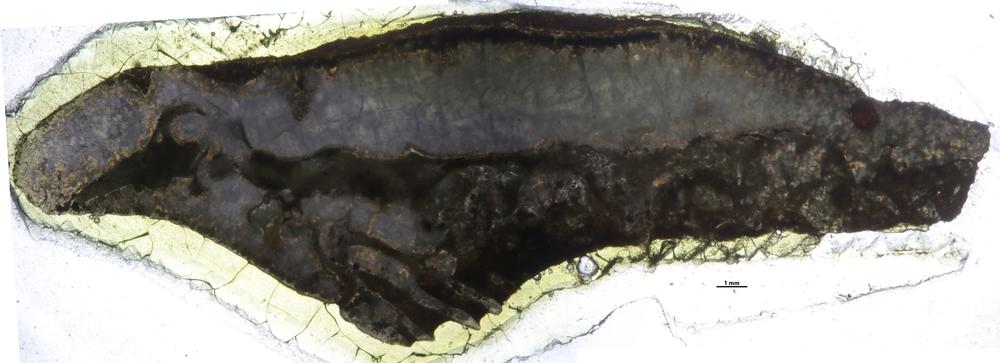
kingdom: Animalia
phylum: Cnidaria
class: Anthozoa
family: Palaeocyclidae
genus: Rhabdocyclus
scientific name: Rhabdocyclus aequispinatus
